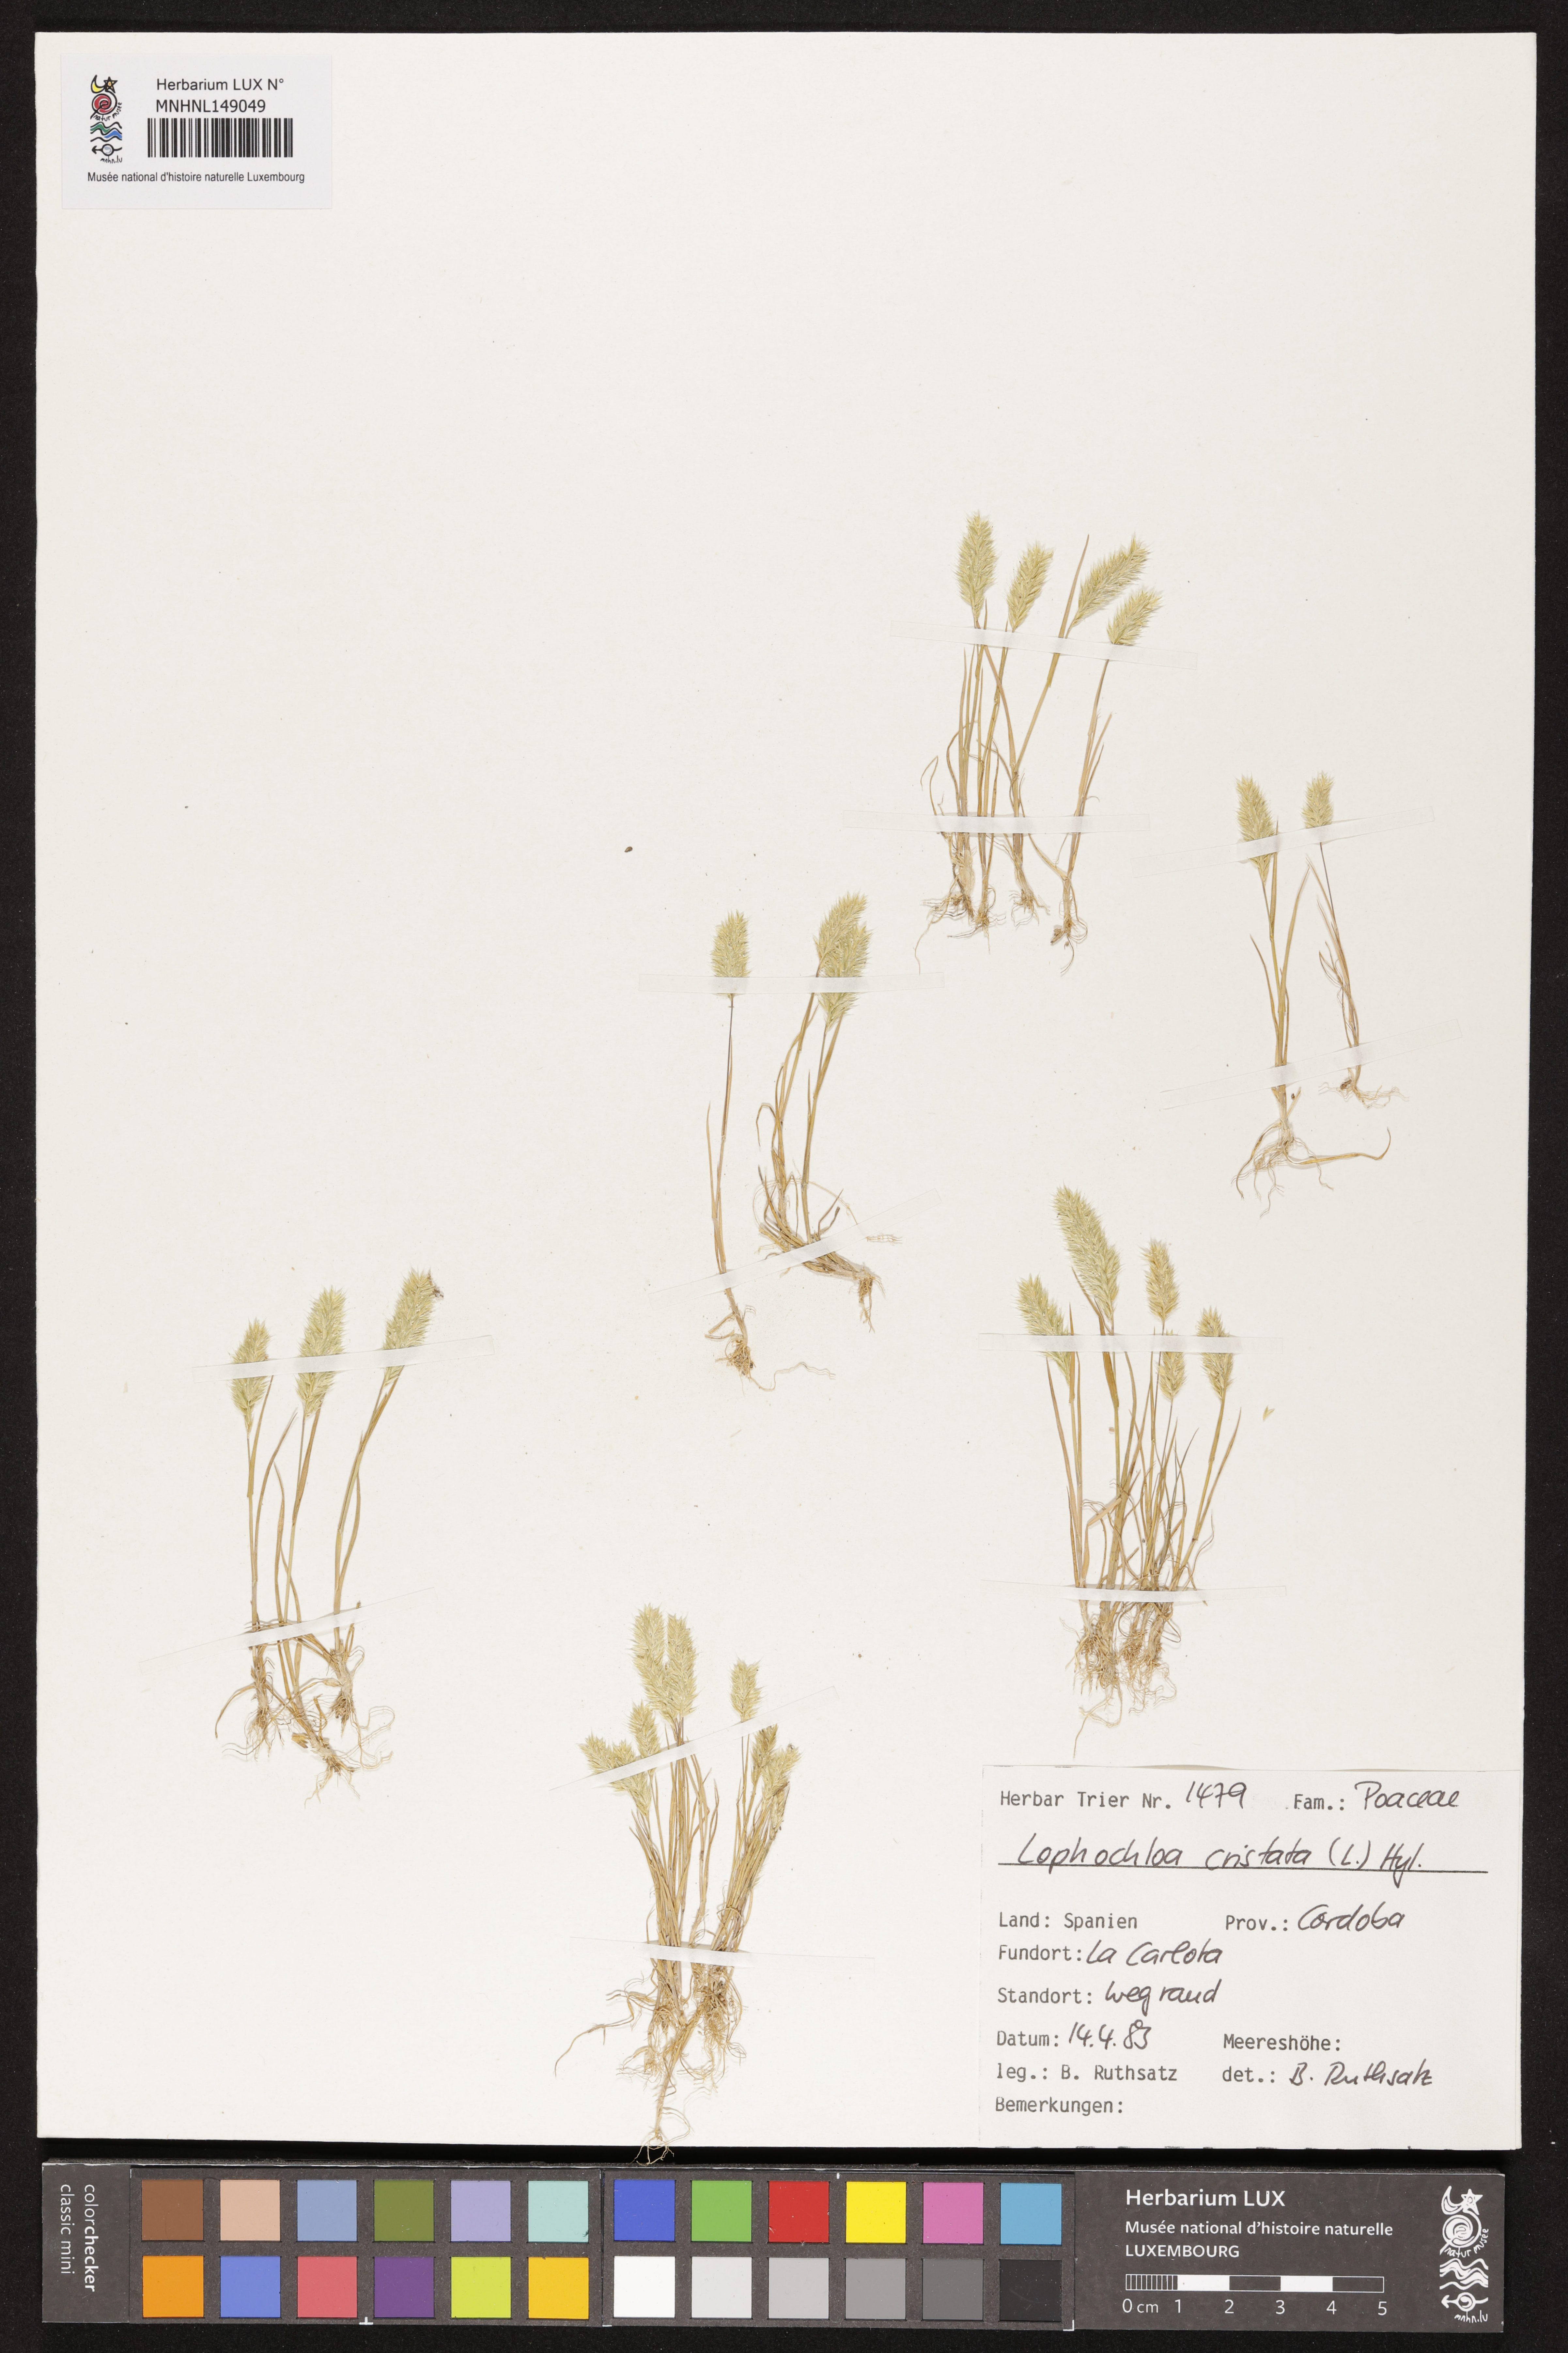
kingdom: Plantae
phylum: Tracheophyta
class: Liliopsida
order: Poales
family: Poaceae
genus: Rostraria
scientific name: Rostraria cristata
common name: Mediterranean hair-grass
